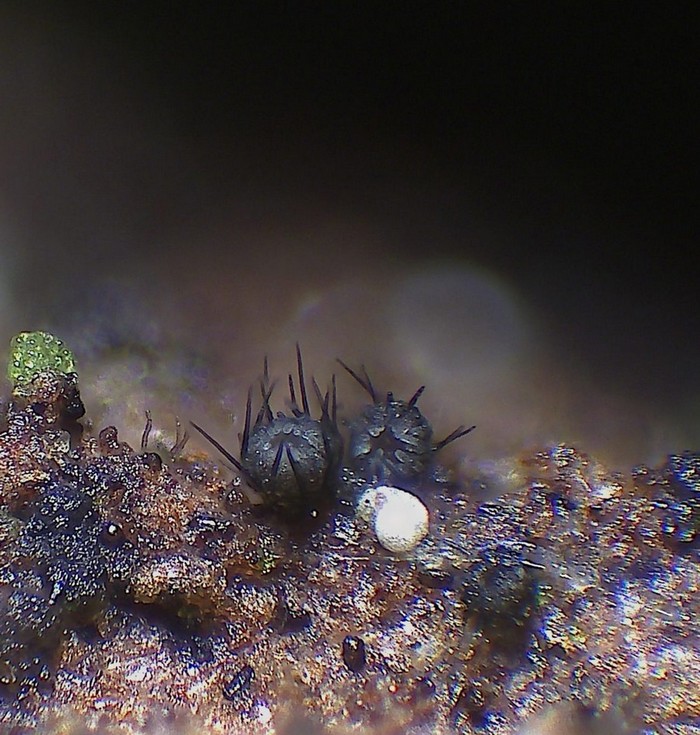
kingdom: Fungi
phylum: Ascomycota
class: Leotiomycetes
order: Helotiales
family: Hyphodiscaceae
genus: Venturiocistella
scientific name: Venturiocistella pini
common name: fyrre-tveskægskive
